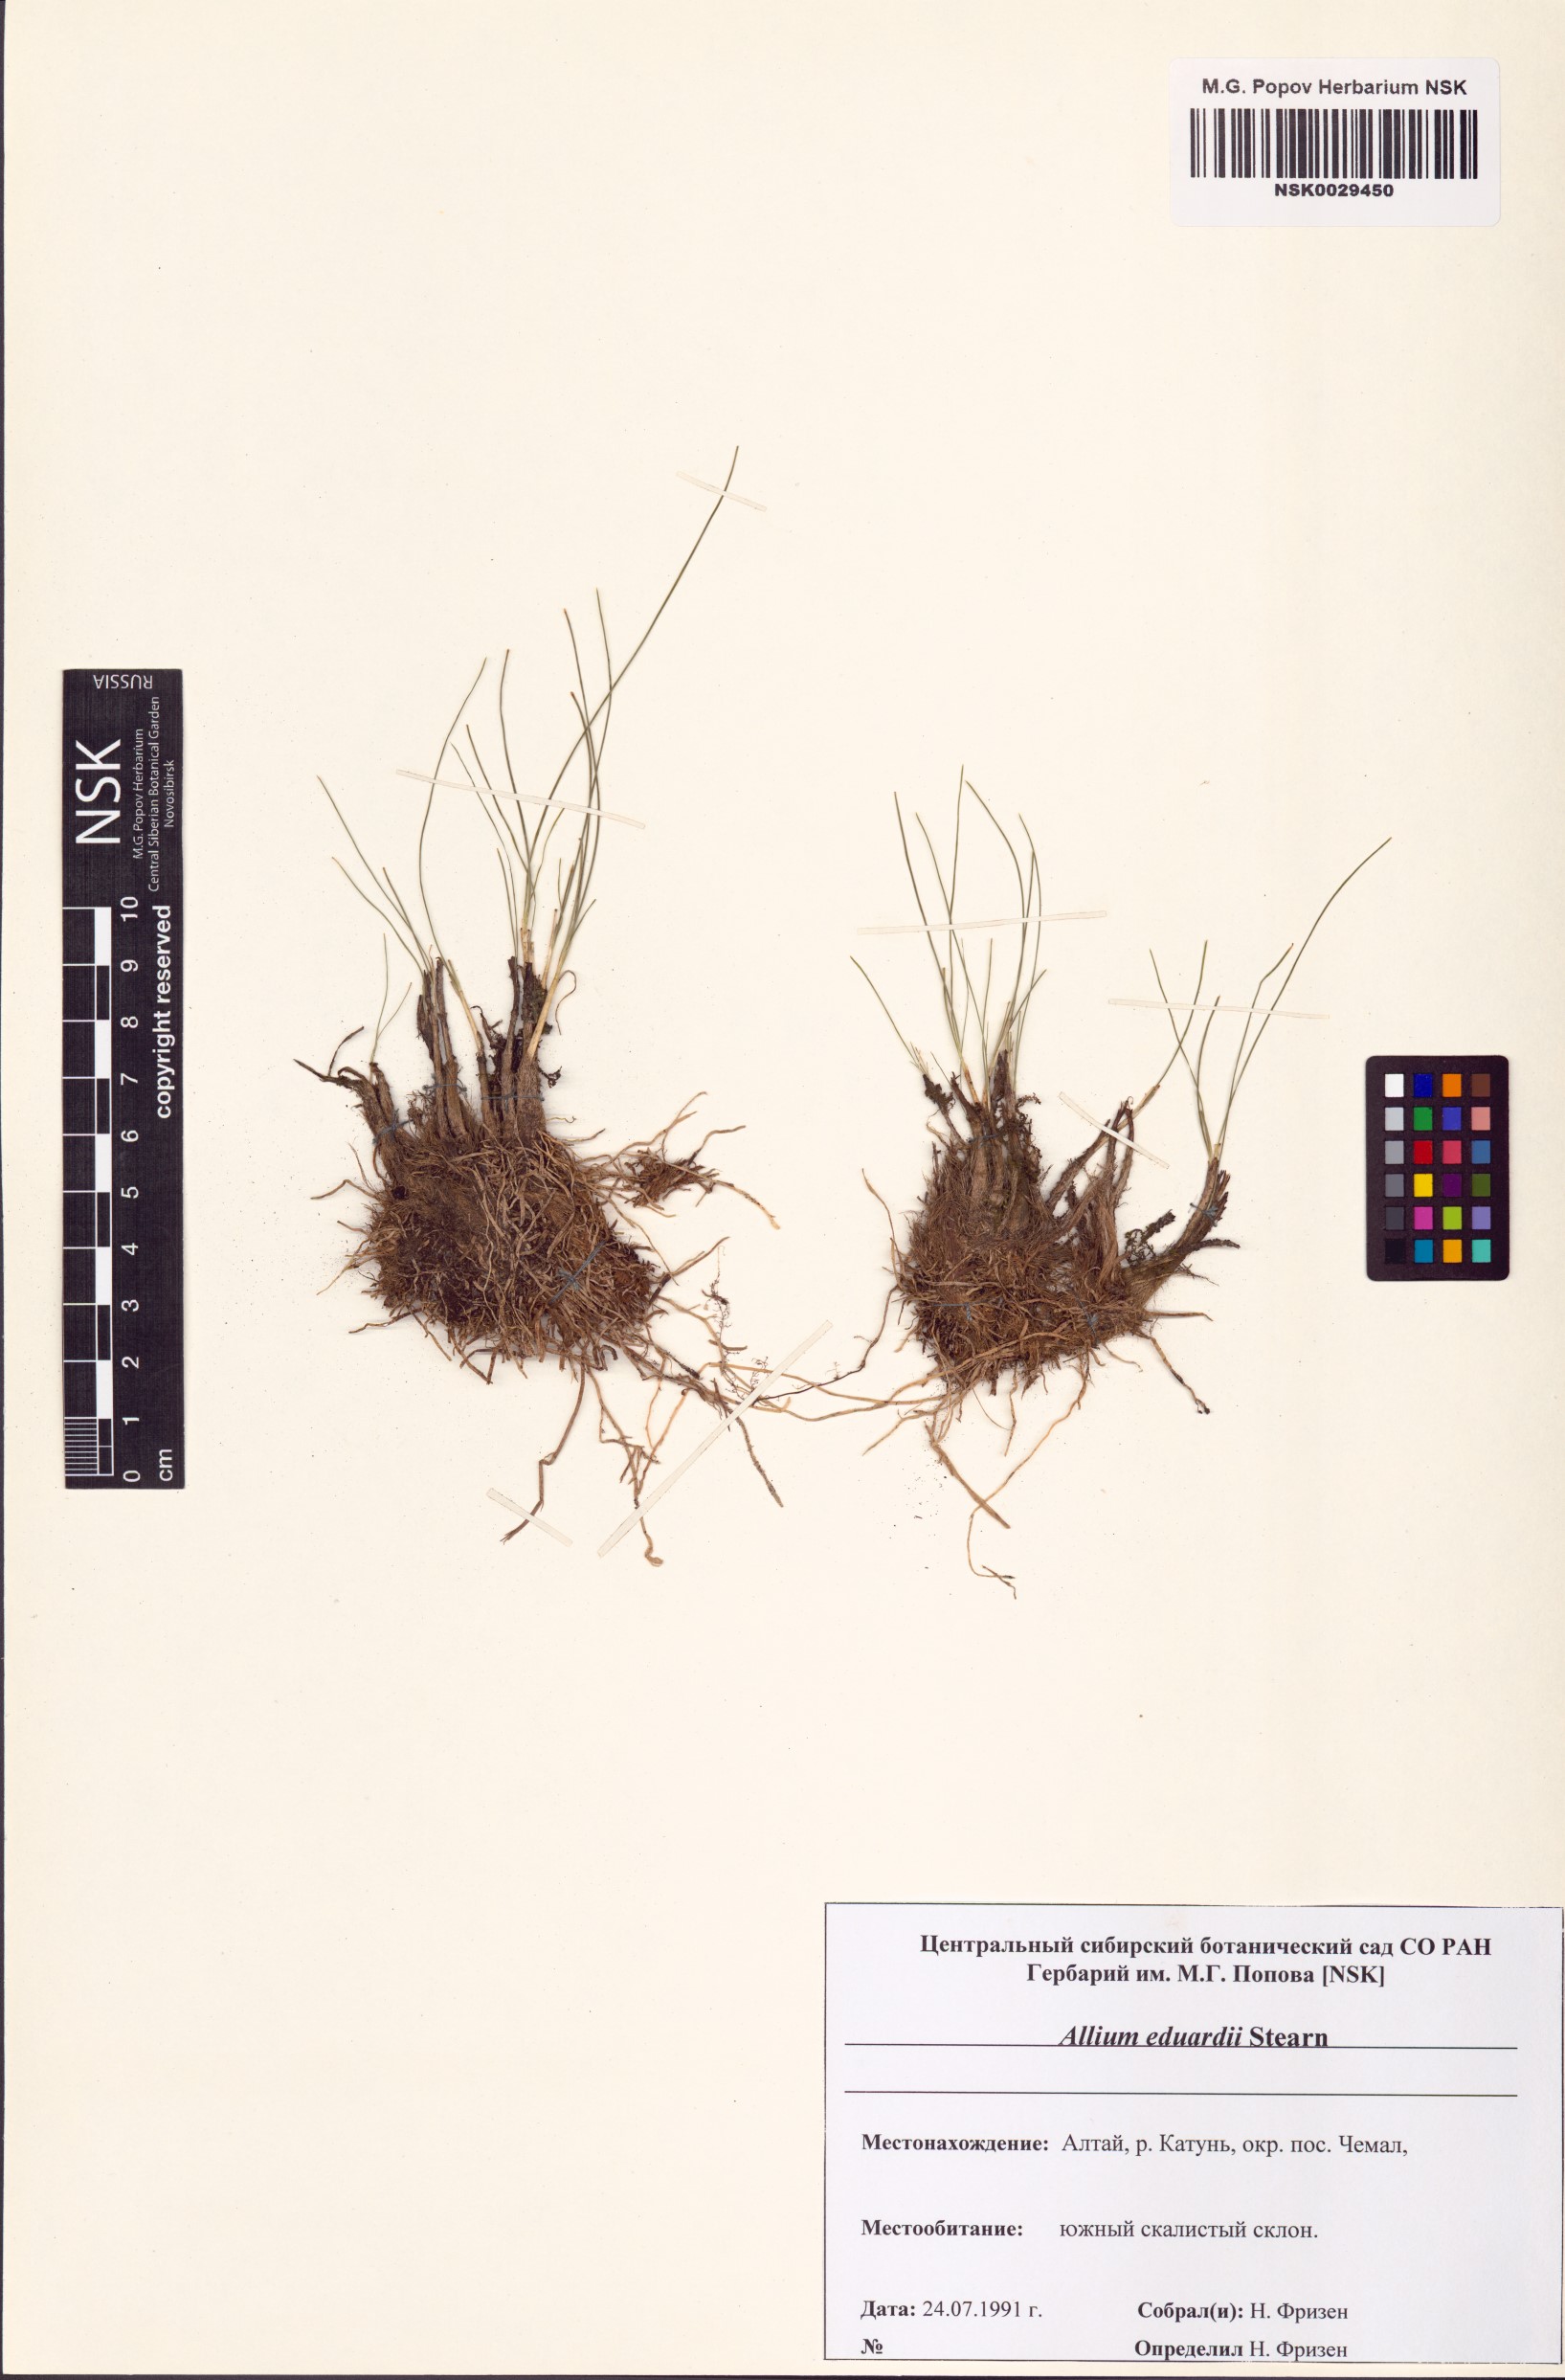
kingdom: Plantae
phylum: Tracheophyta
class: Liliopsida
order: Asparagales
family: Amaryllidaceae
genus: Allium
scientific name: Allium eduardi
